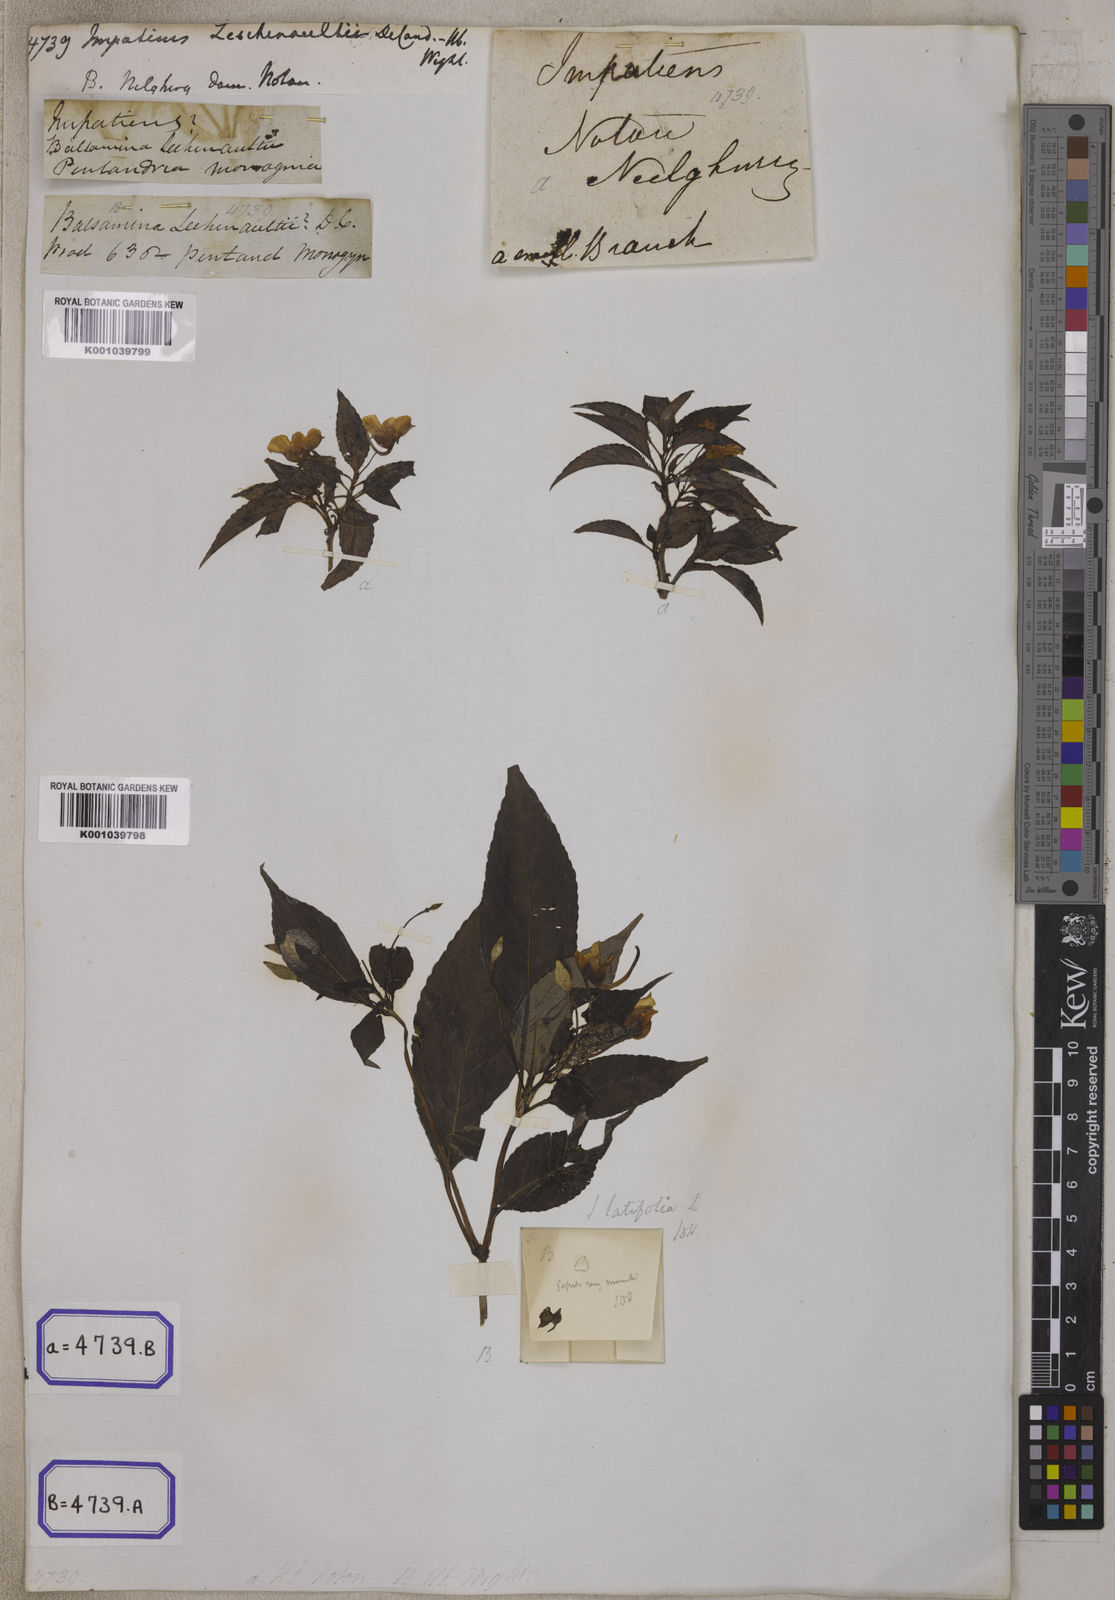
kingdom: Plantae
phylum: Tracheophyta
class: Magnoliopsida
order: Ericales
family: Balsaminaceae
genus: Impatiens
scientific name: Impatiens leschenaultii
